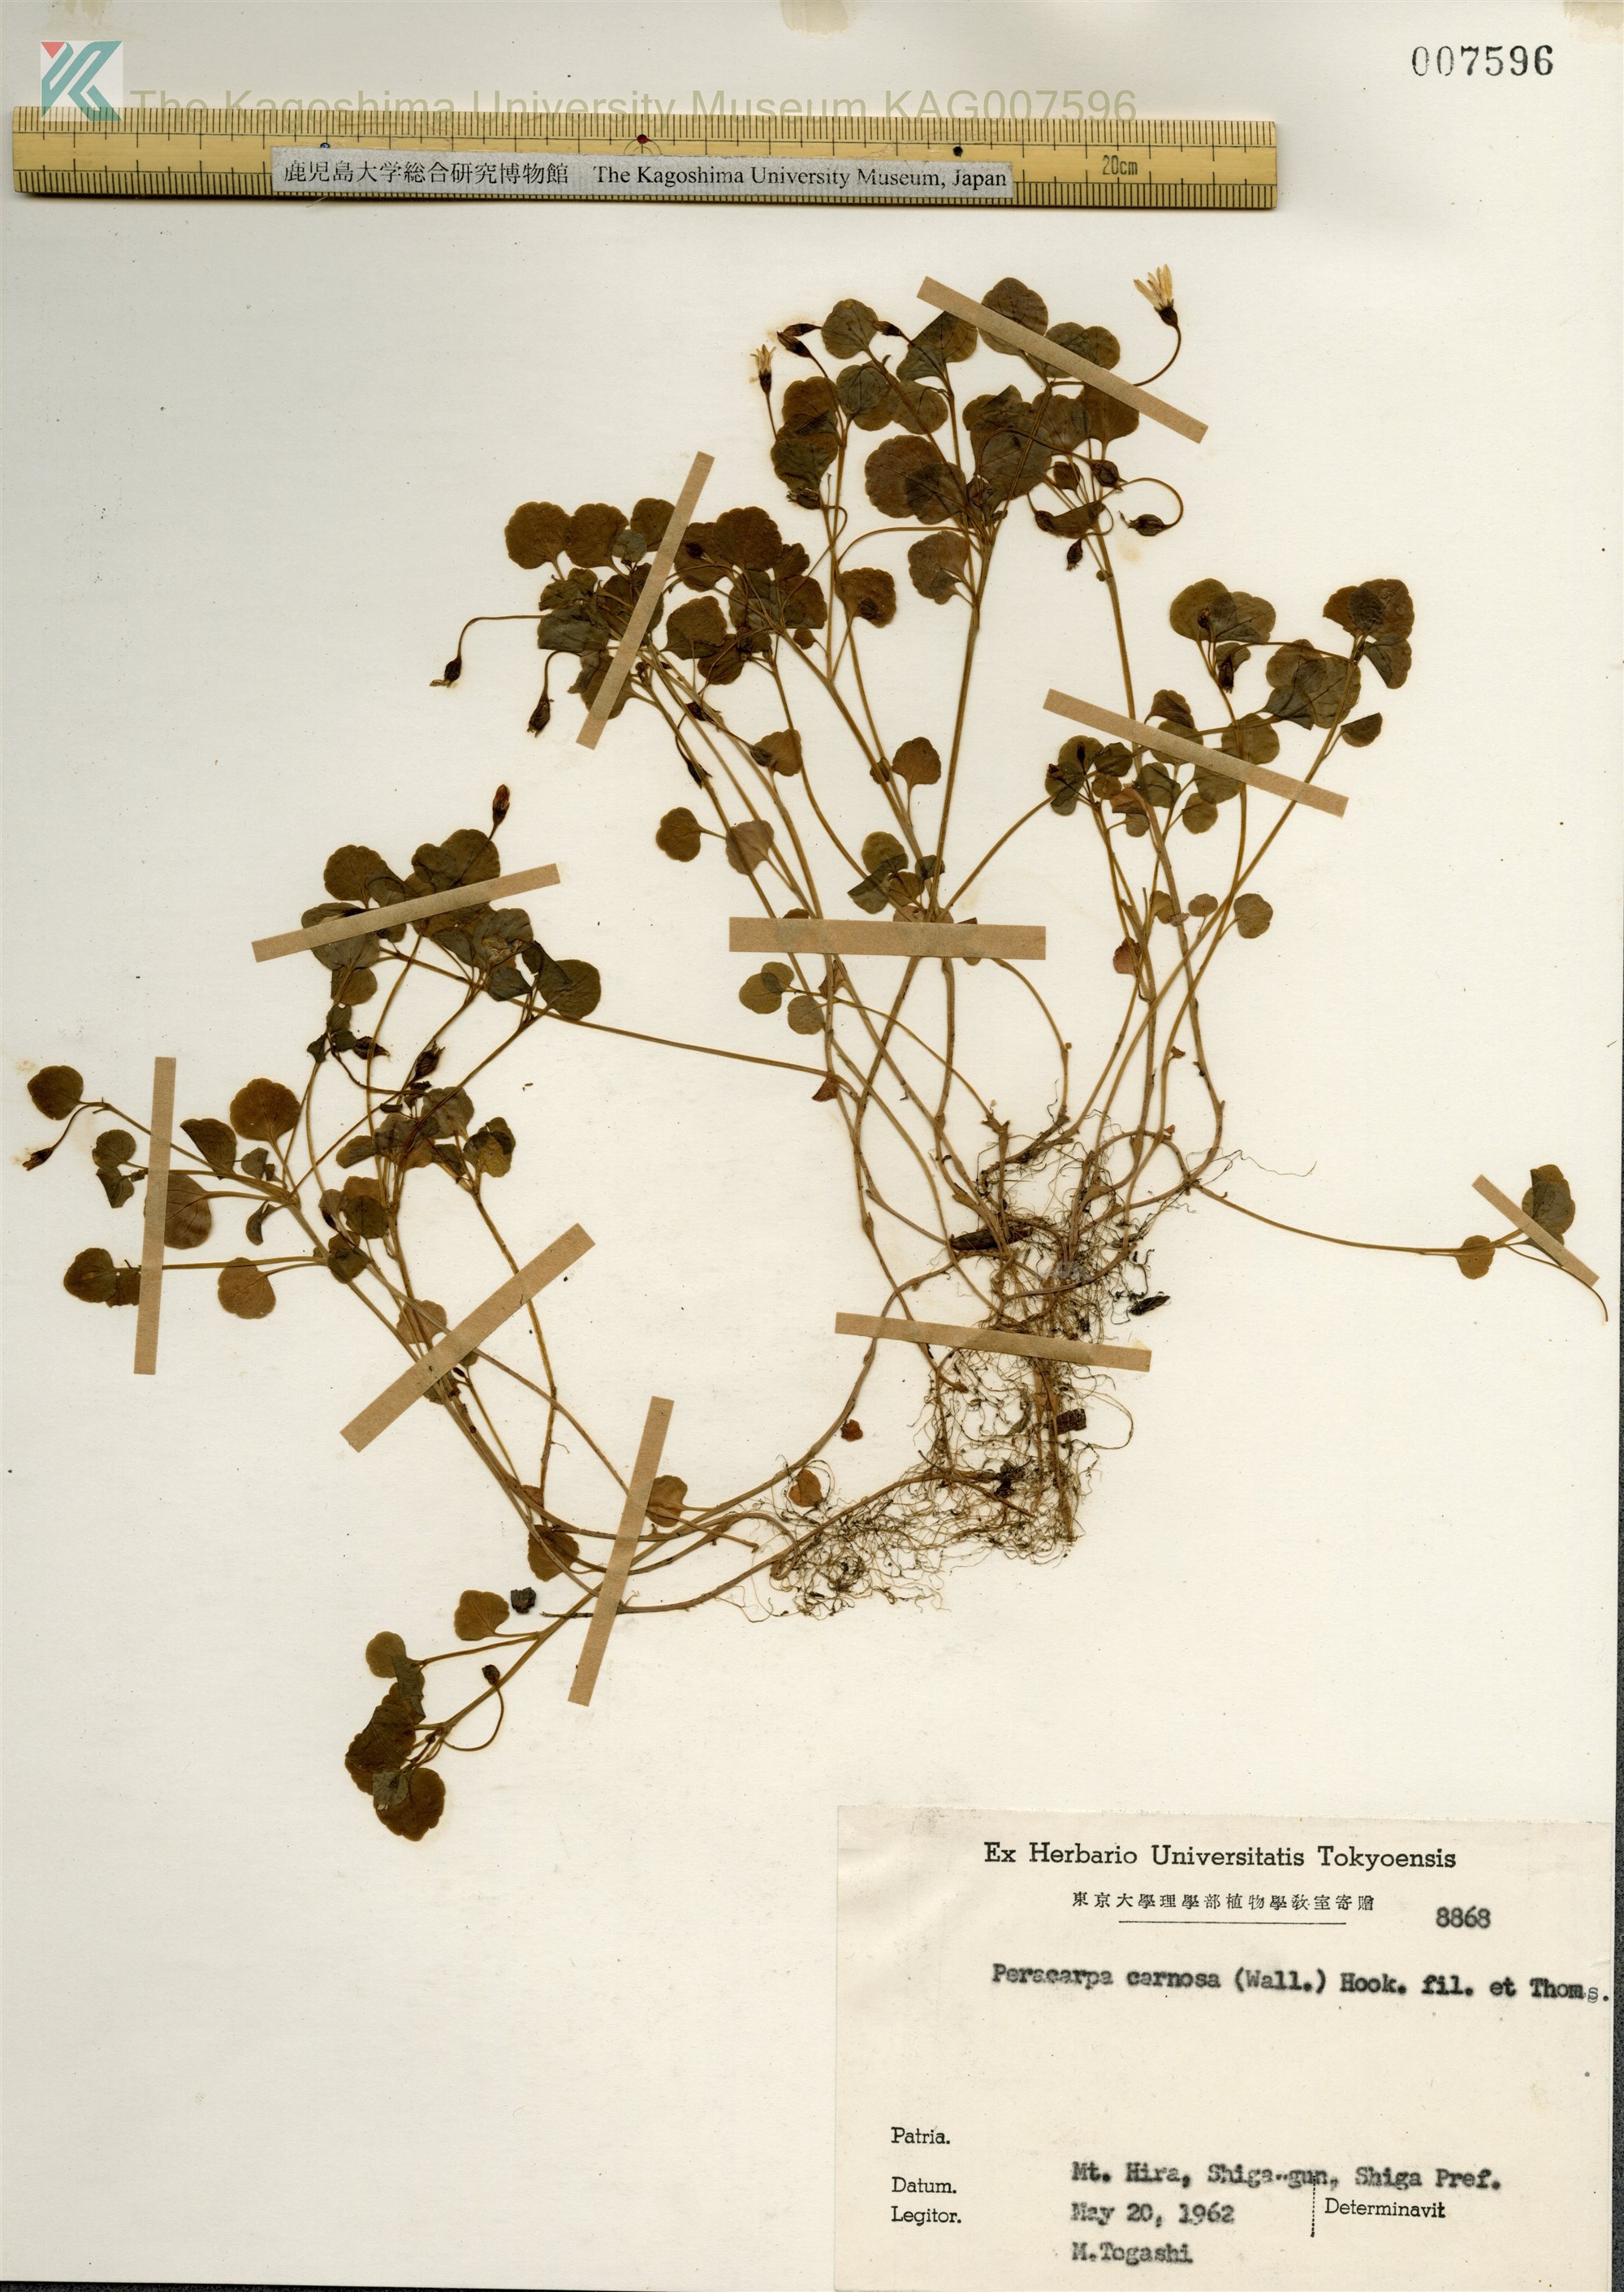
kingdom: Plantae
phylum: Tracheophyta
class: Magnoliopsida
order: Asterales
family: Campanulaceae
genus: Peracarpa
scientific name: Peracarpa carnosa
